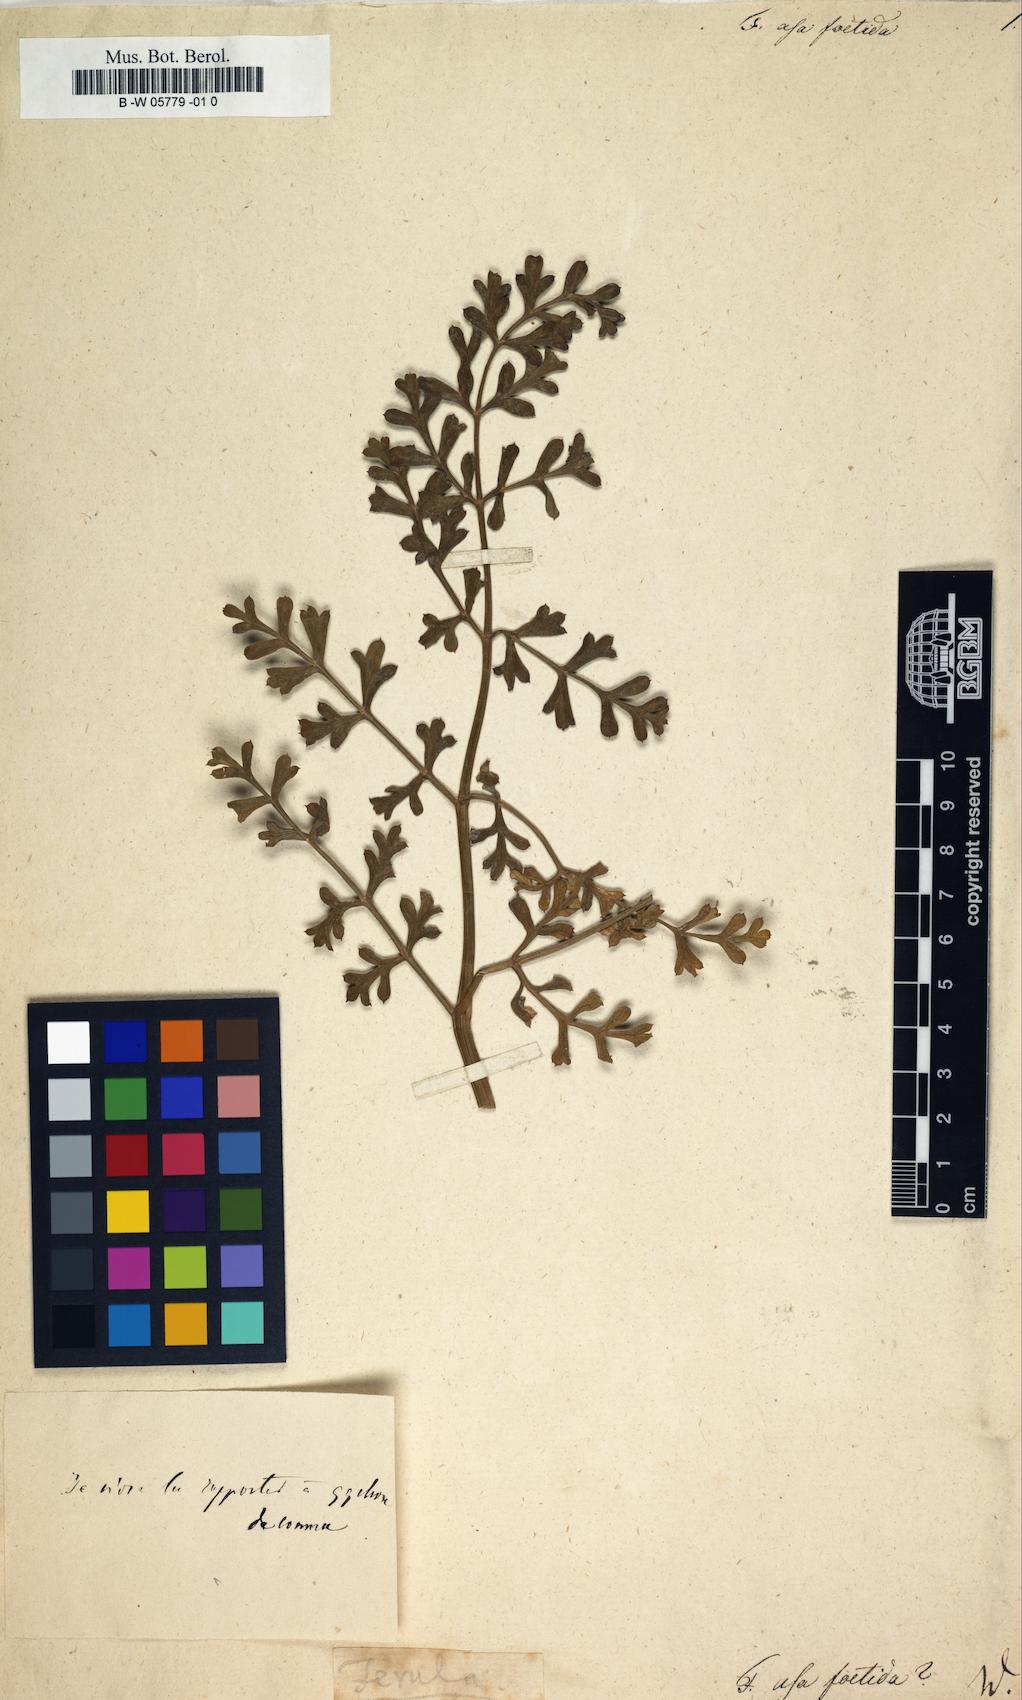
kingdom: Plantae
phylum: Tracheophyta
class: Magnoliopsida
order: Apiales
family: Apiaceae
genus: Ferula
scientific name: Ferula asa-foetida
